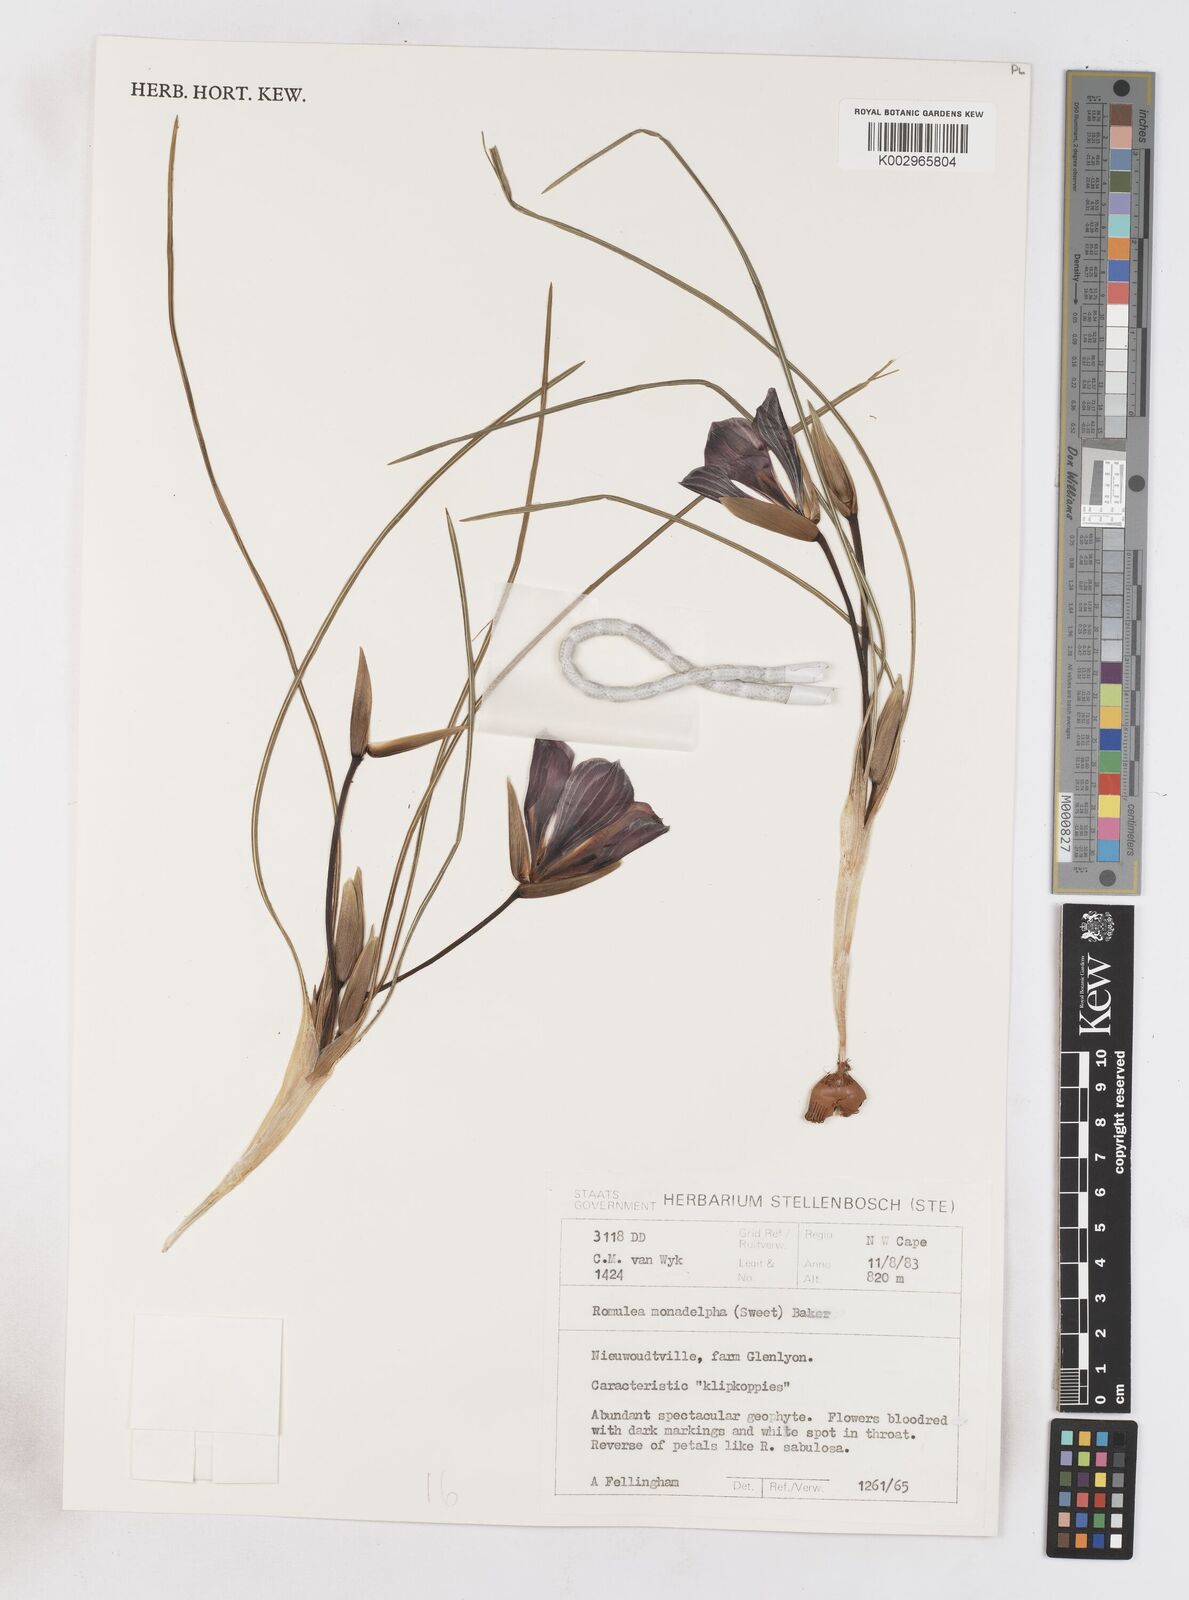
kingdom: Plantae
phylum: Tracheophyta
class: Liliopsida
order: Asparagales
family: Iridaceae
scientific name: Iridaceae
